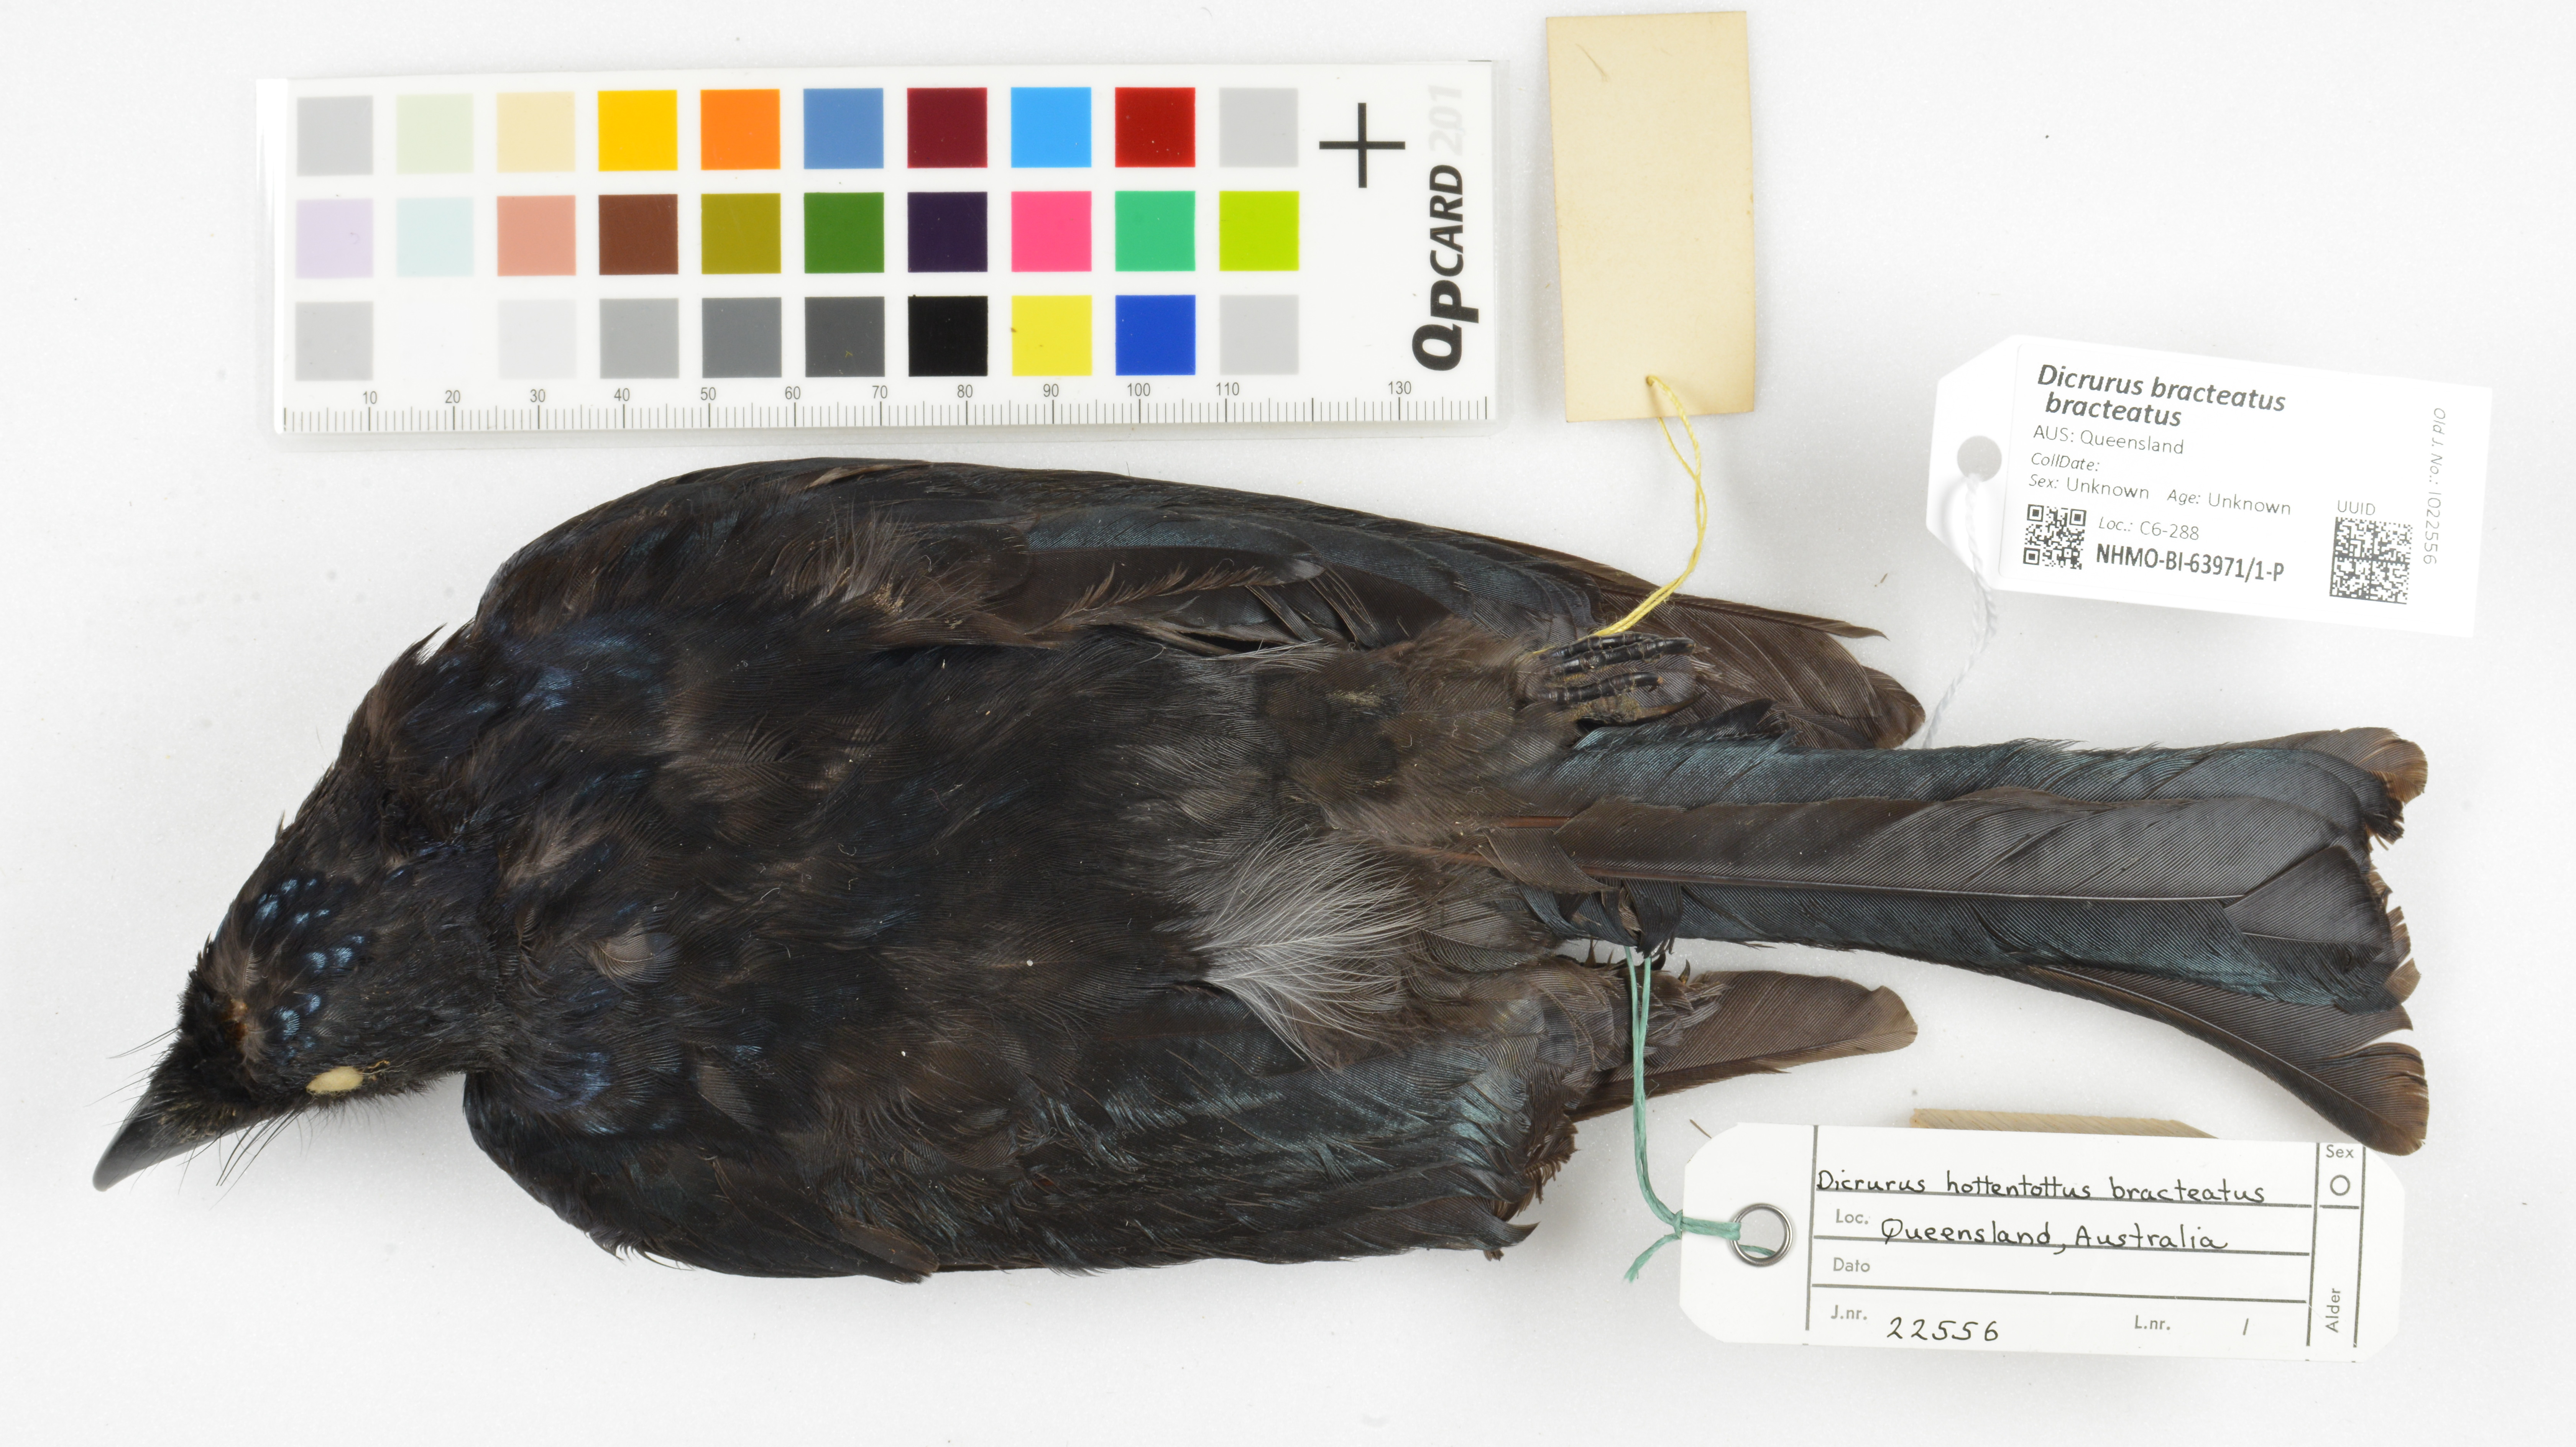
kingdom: Animalia
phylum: Chordata
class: Aves
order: Passeriformes
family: Dicruridae
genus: Dicrurus
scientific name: Dicrurus bracteatus
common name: Spangled drongo
